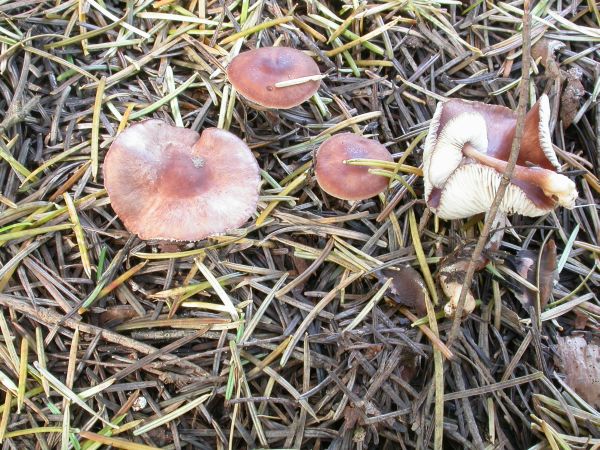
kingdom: Fungi
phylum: Basidiomycota
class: Agaricomycetes
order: Agaricales
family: Omphalotaceae
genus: Rhodocollybia
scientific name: Rhodocollybia filamentosa
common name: fibret fladhat
